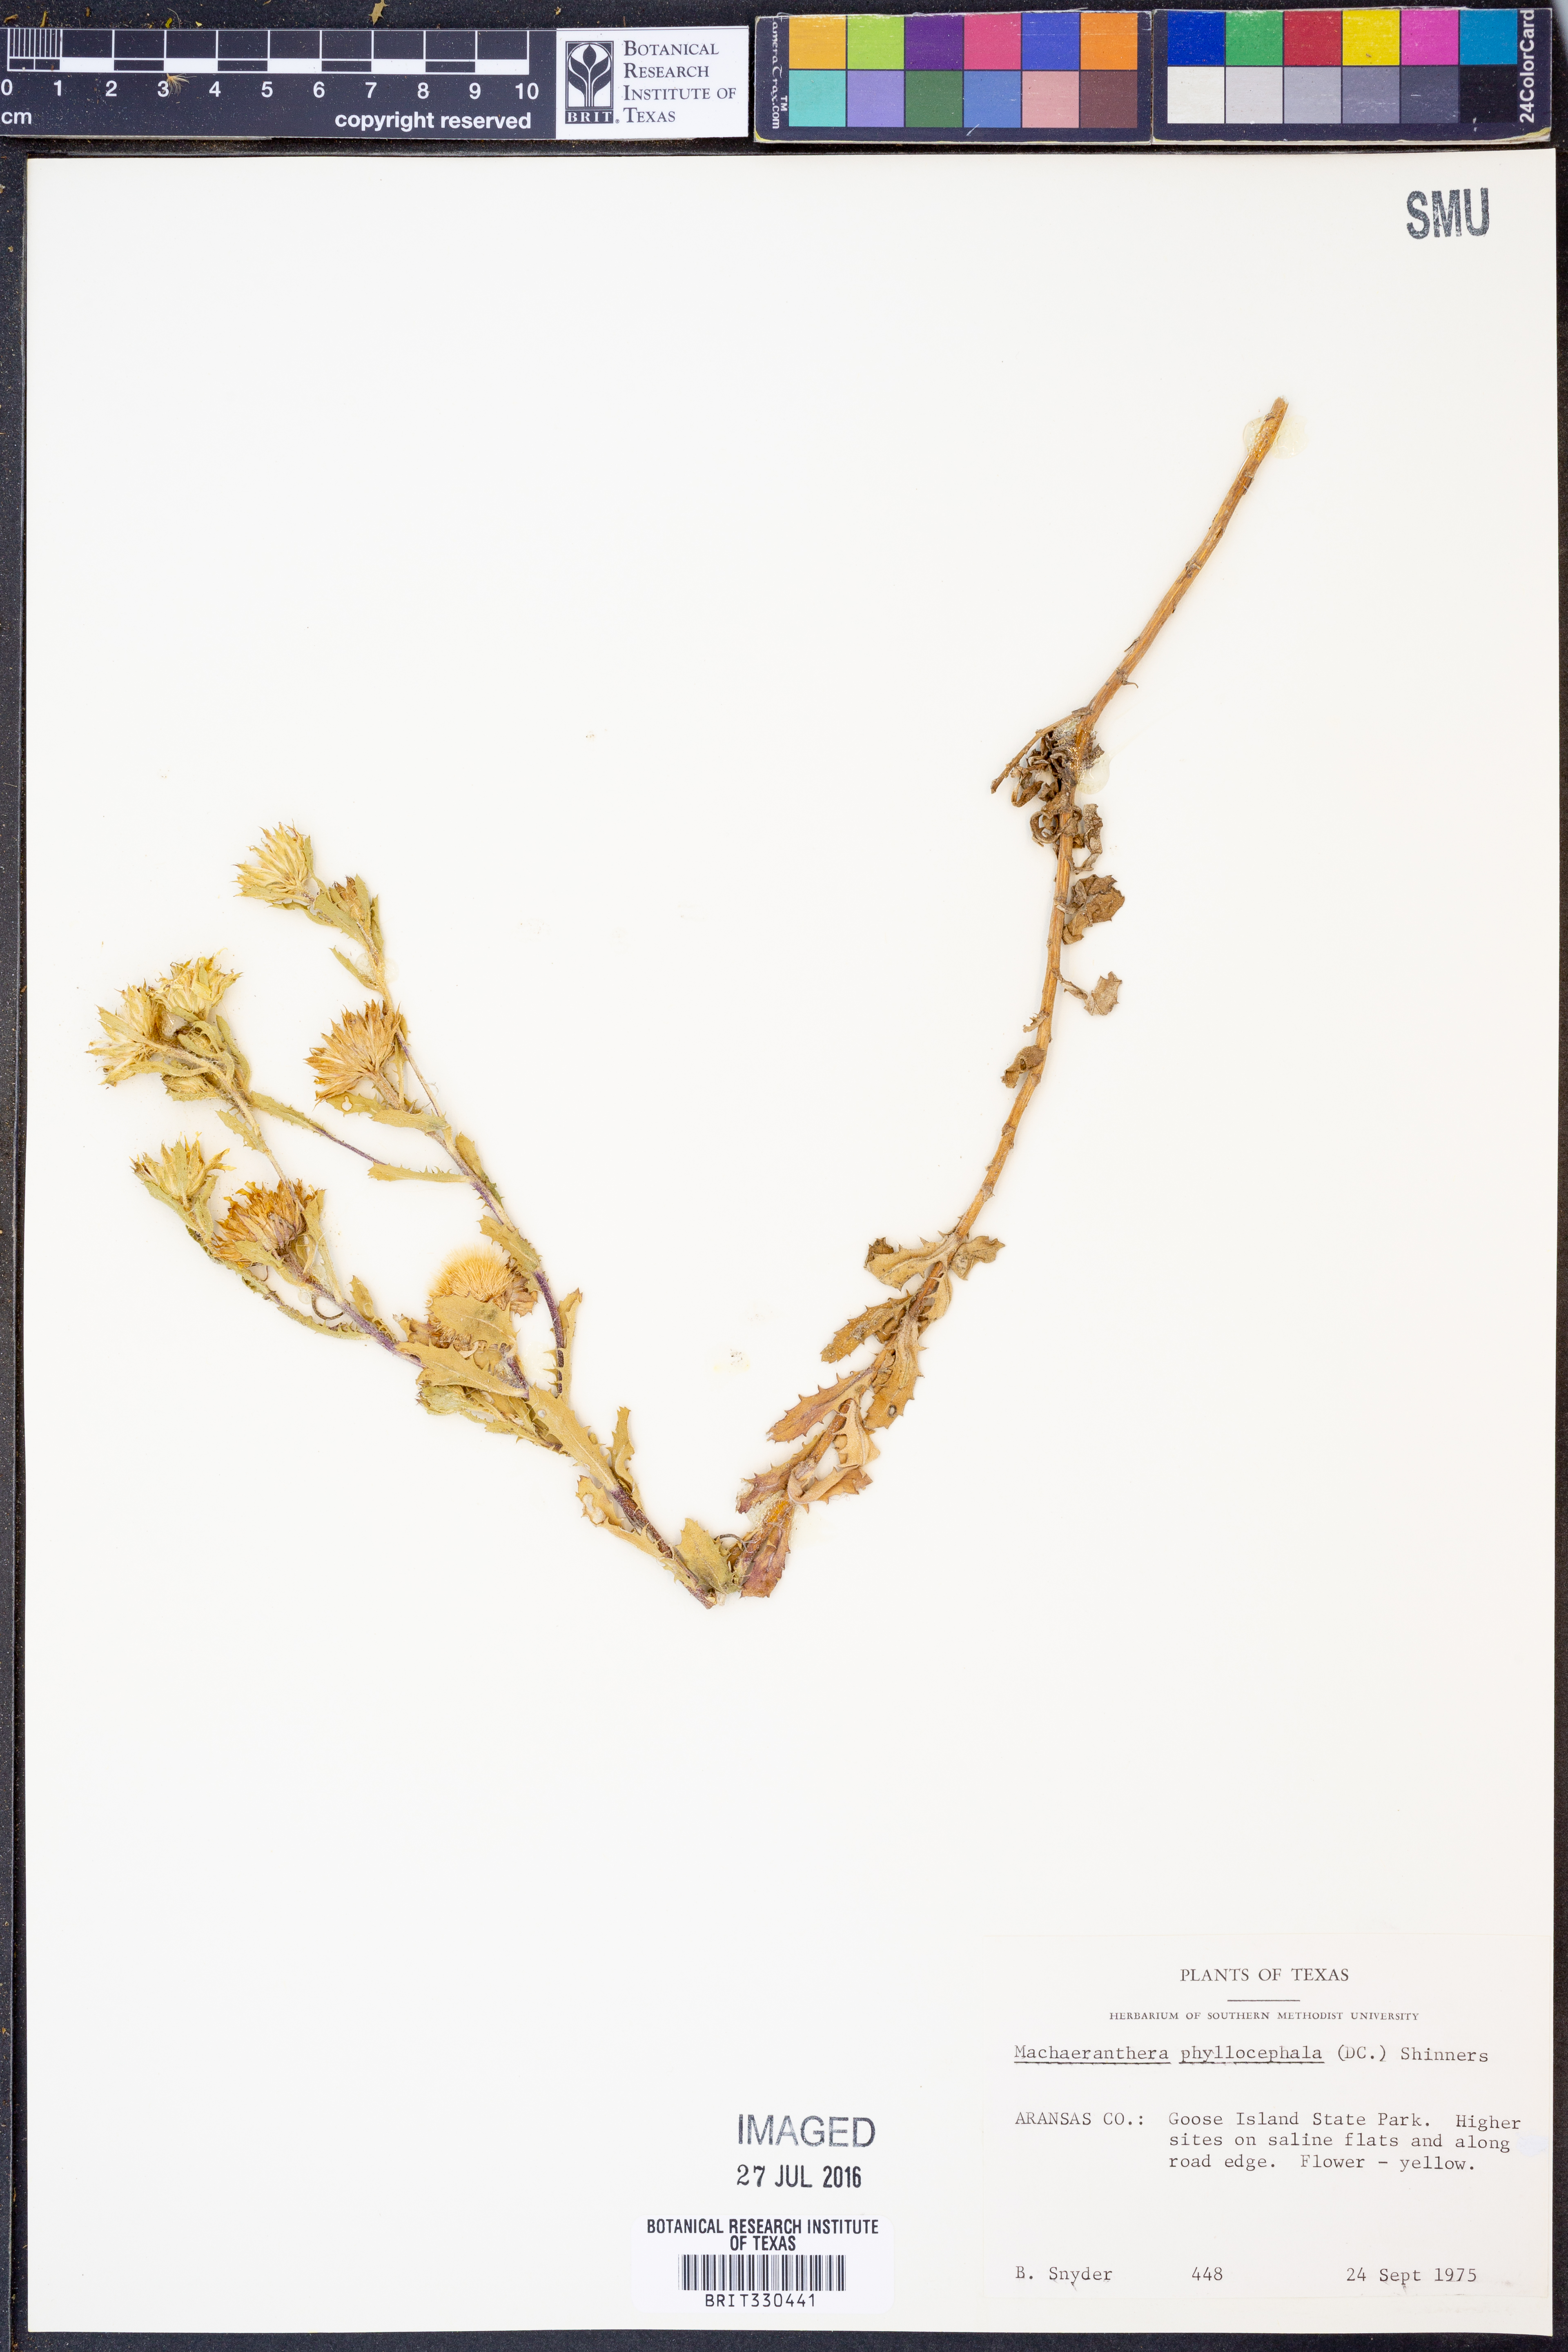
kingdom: Plantae
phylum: Tracheophyta
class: Magnoliopsida
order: Asterales
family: Asteraceae
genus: Rayjacksonia
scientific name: Rayjacksonia phyllocephala
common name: Gulf coast camphor daisy
